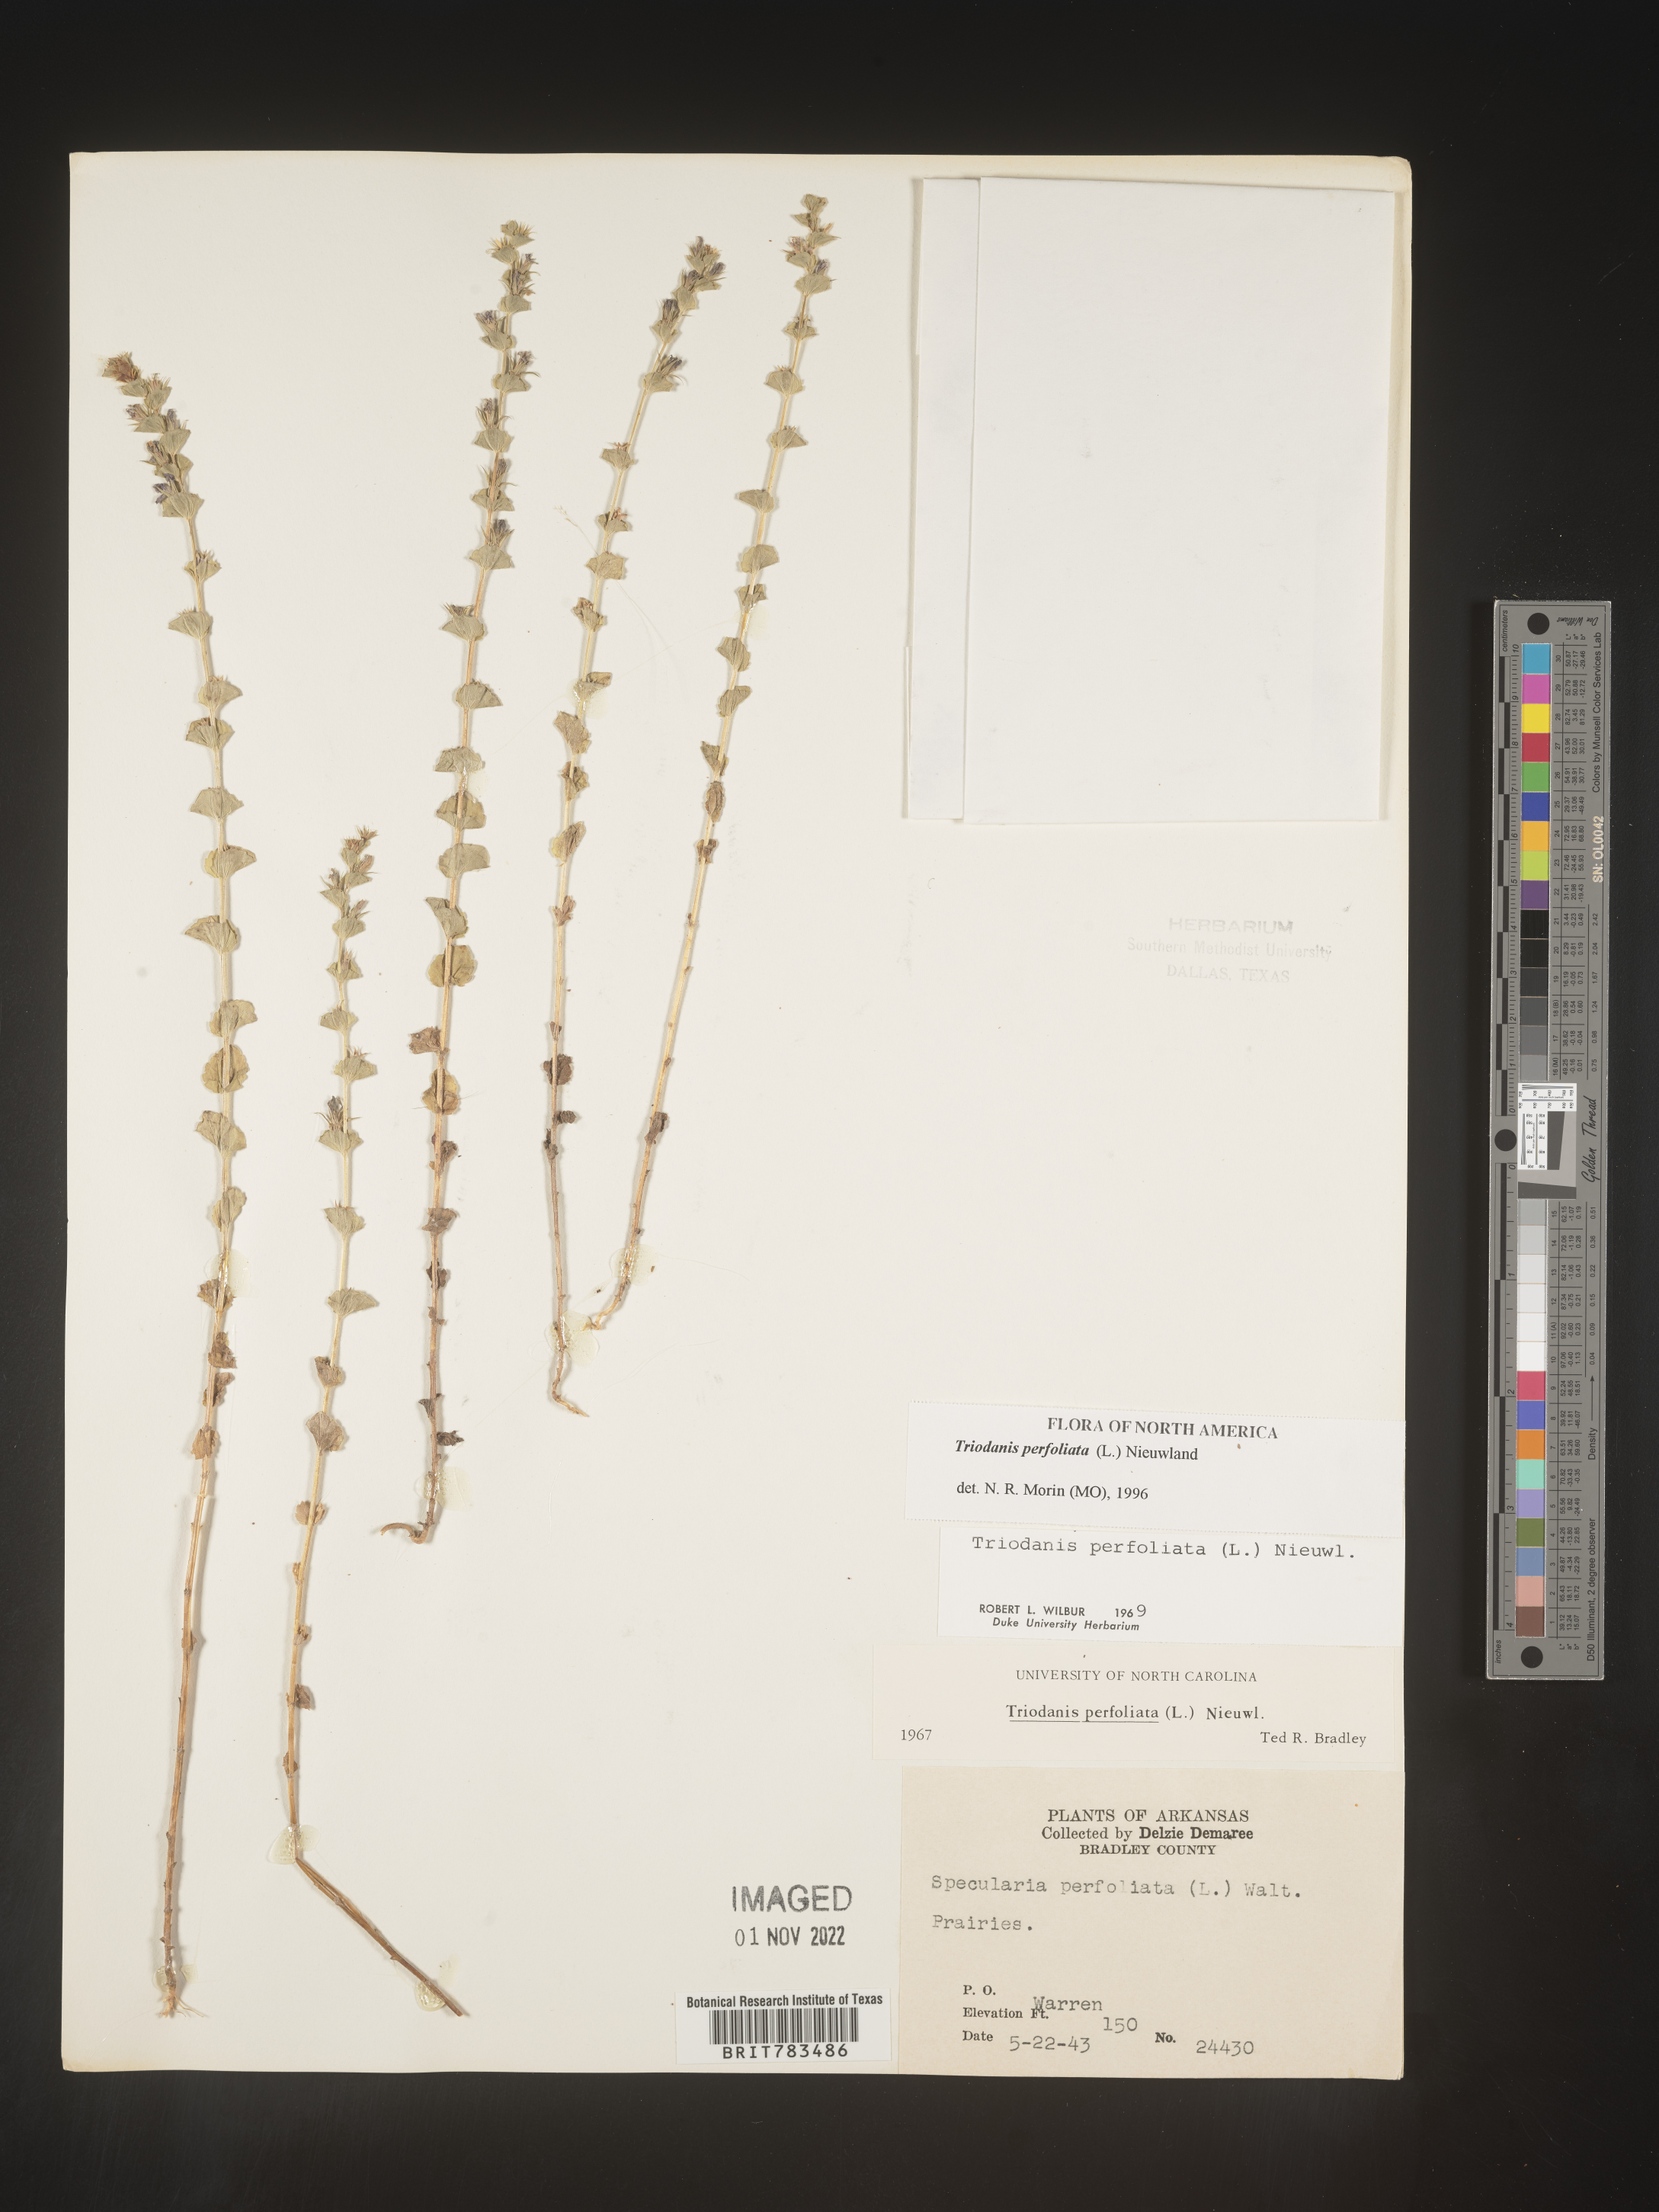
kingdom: Plantae
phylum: Tracheophyta
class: Magnoliopsida
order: Asterales
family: Campanulaceae
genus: Triodanis
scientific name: Triodanis perfoliata
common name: Clasping venus' looking-glass
